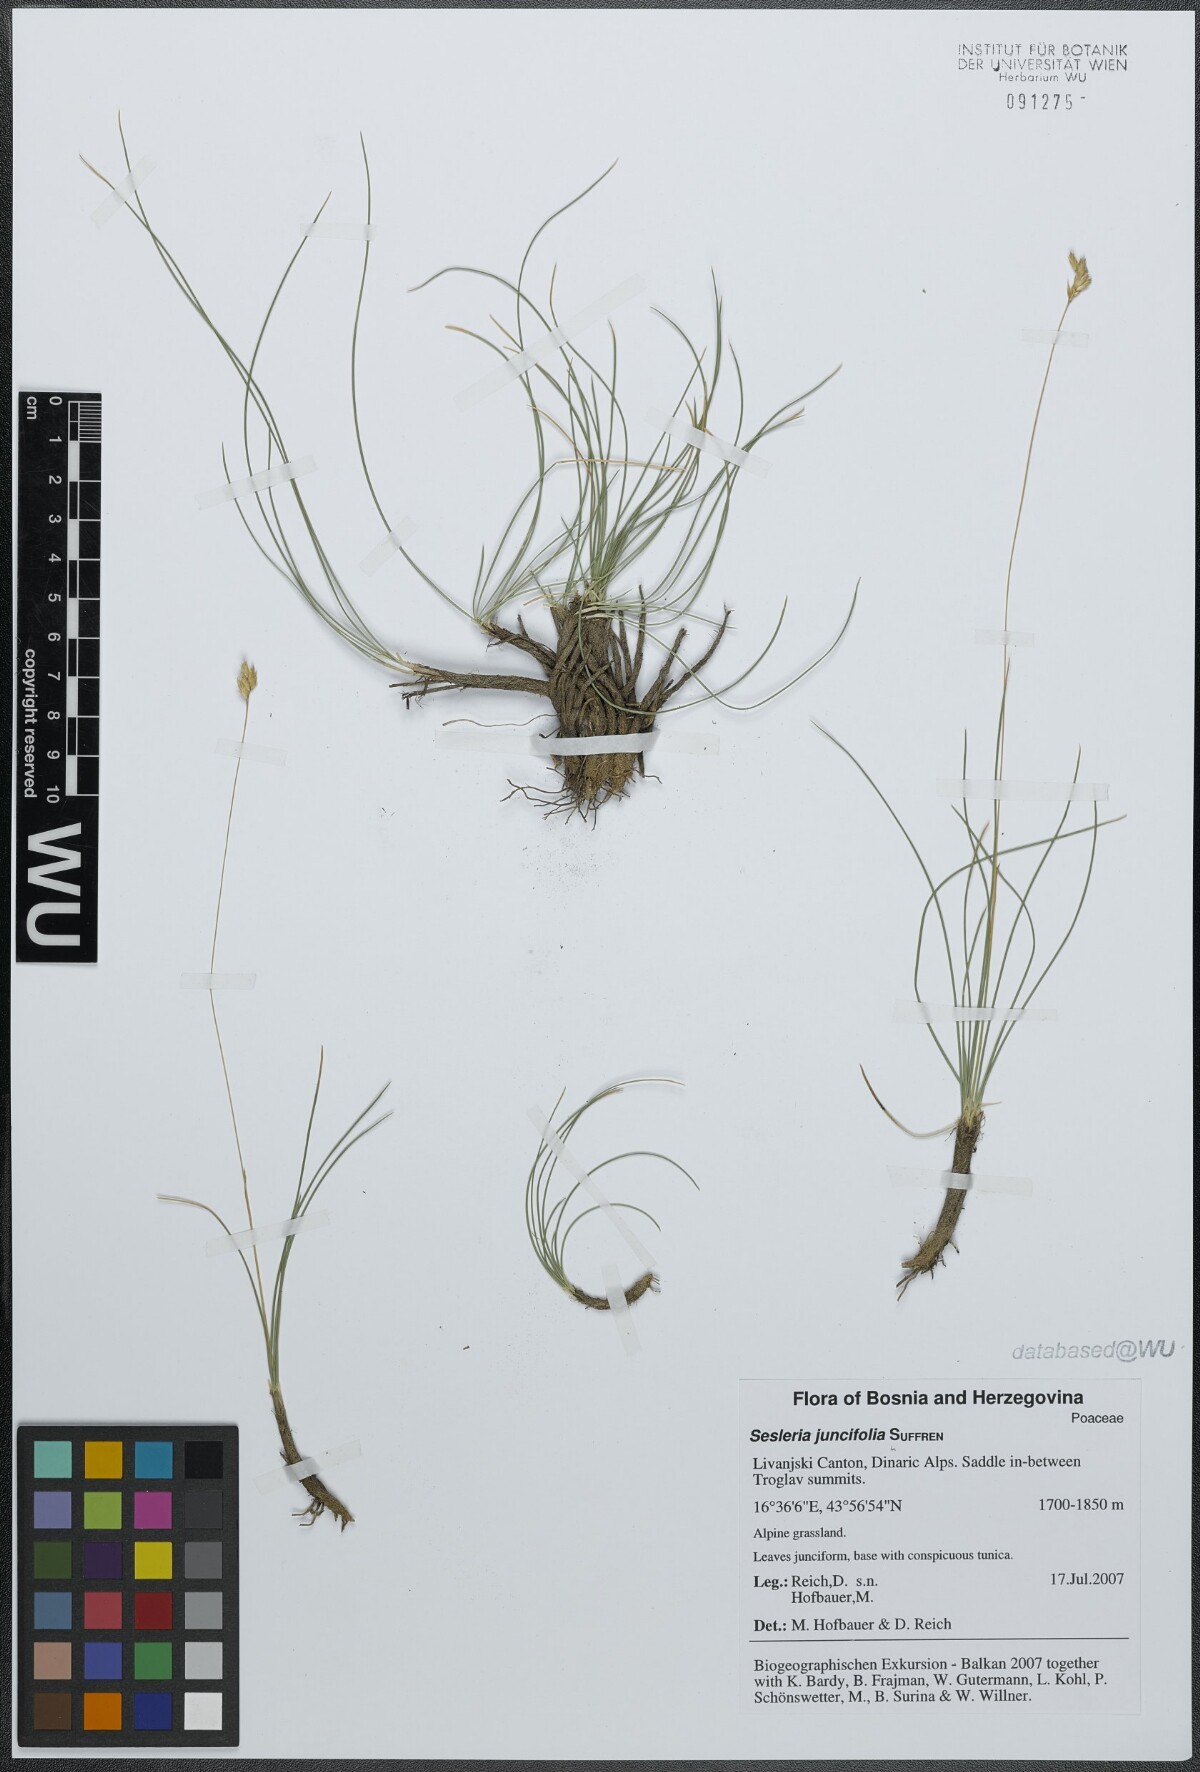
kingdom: Plantae
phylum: Tracheophyta
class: Liliopsida
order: Poales
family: Poaceae
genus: Sesleria
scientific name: Sesleria juncifolia
